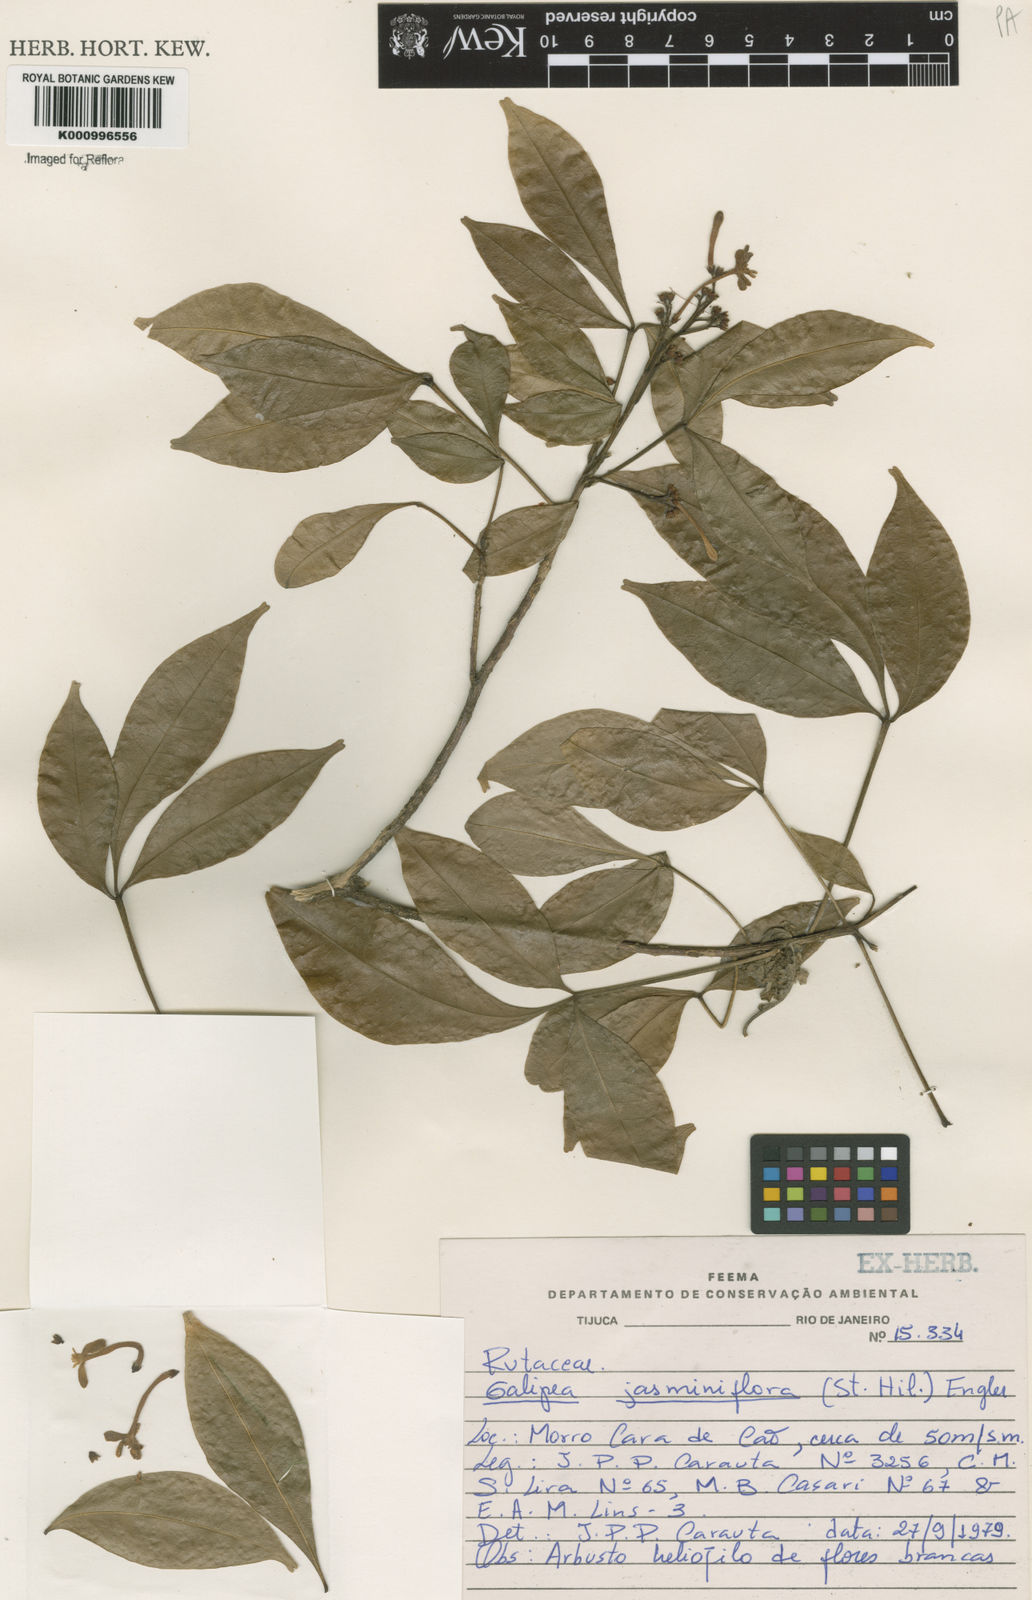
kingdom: Plantae
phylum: Tracheophyta
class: Magnoliopsida
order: Sapindales
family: Rutaceae
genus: Galipea
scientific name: Galipea
